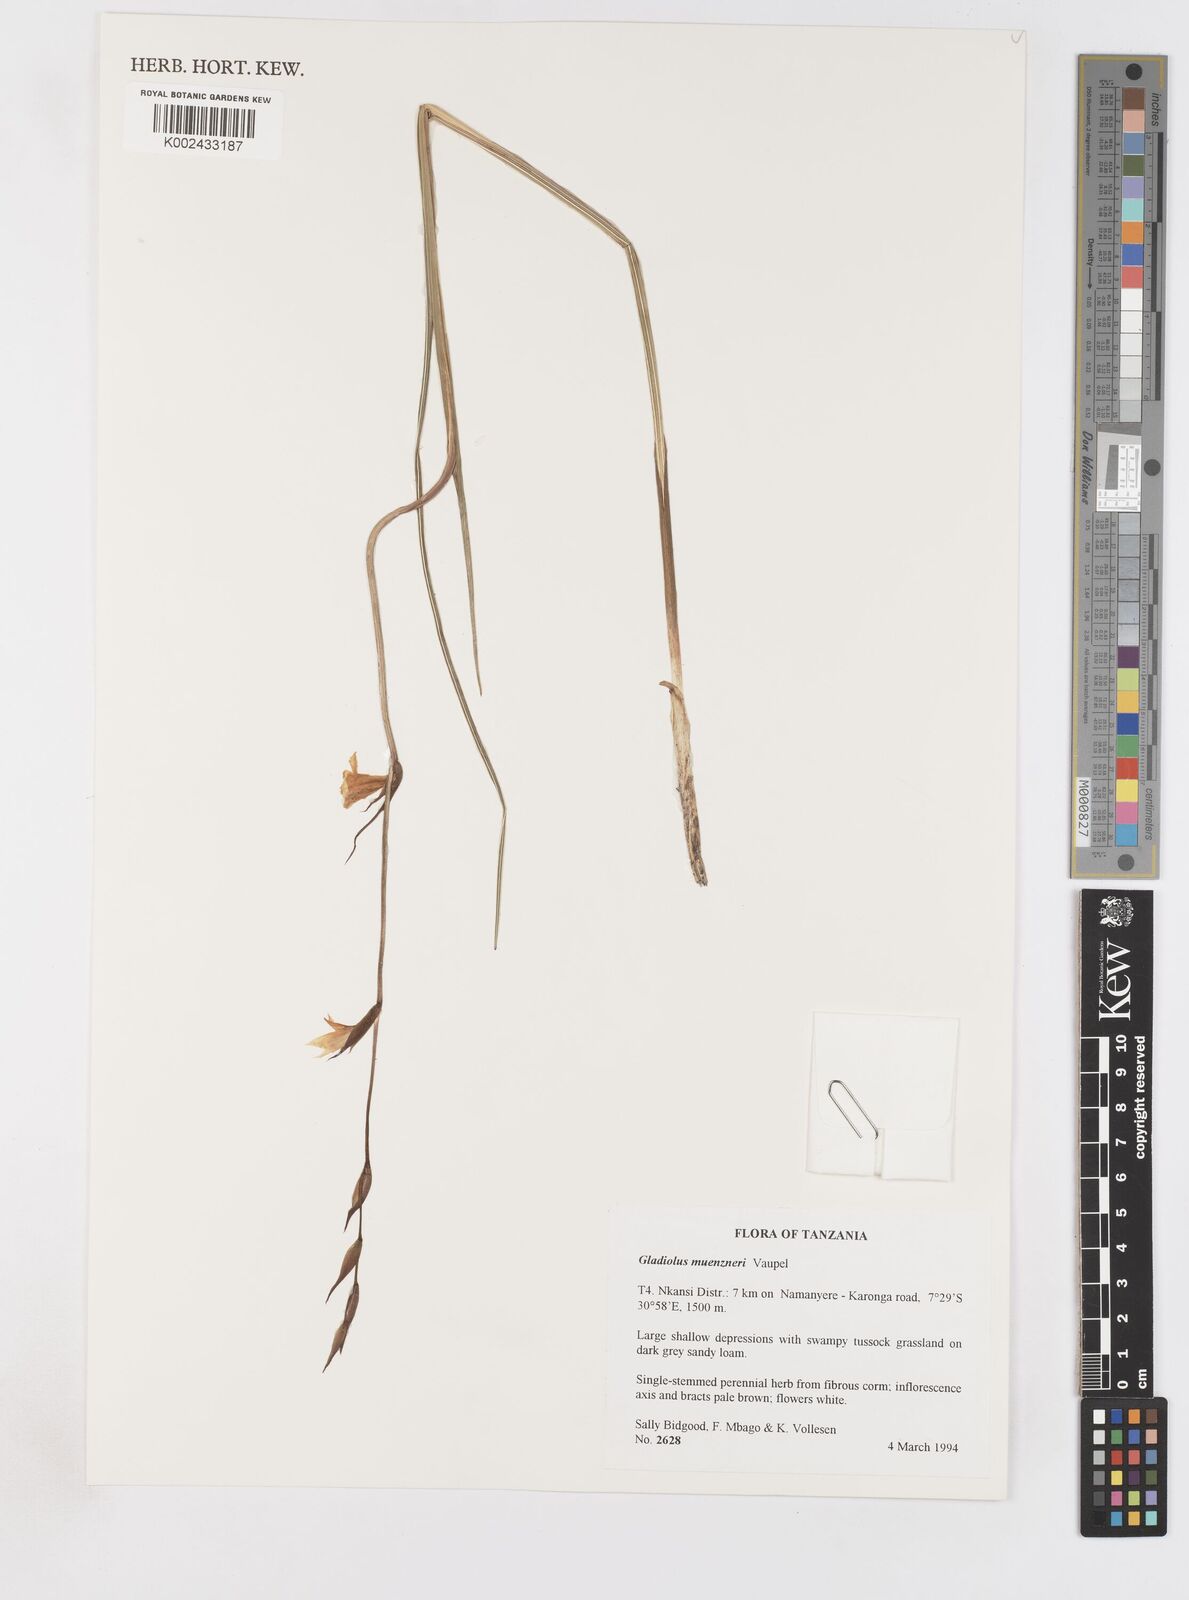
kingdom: Plantae
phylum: Tracheophyta
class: Liliopsida
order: Asparagales
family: Iridaceae
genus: Gladiolus
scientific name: Gladiolus muenzneri
